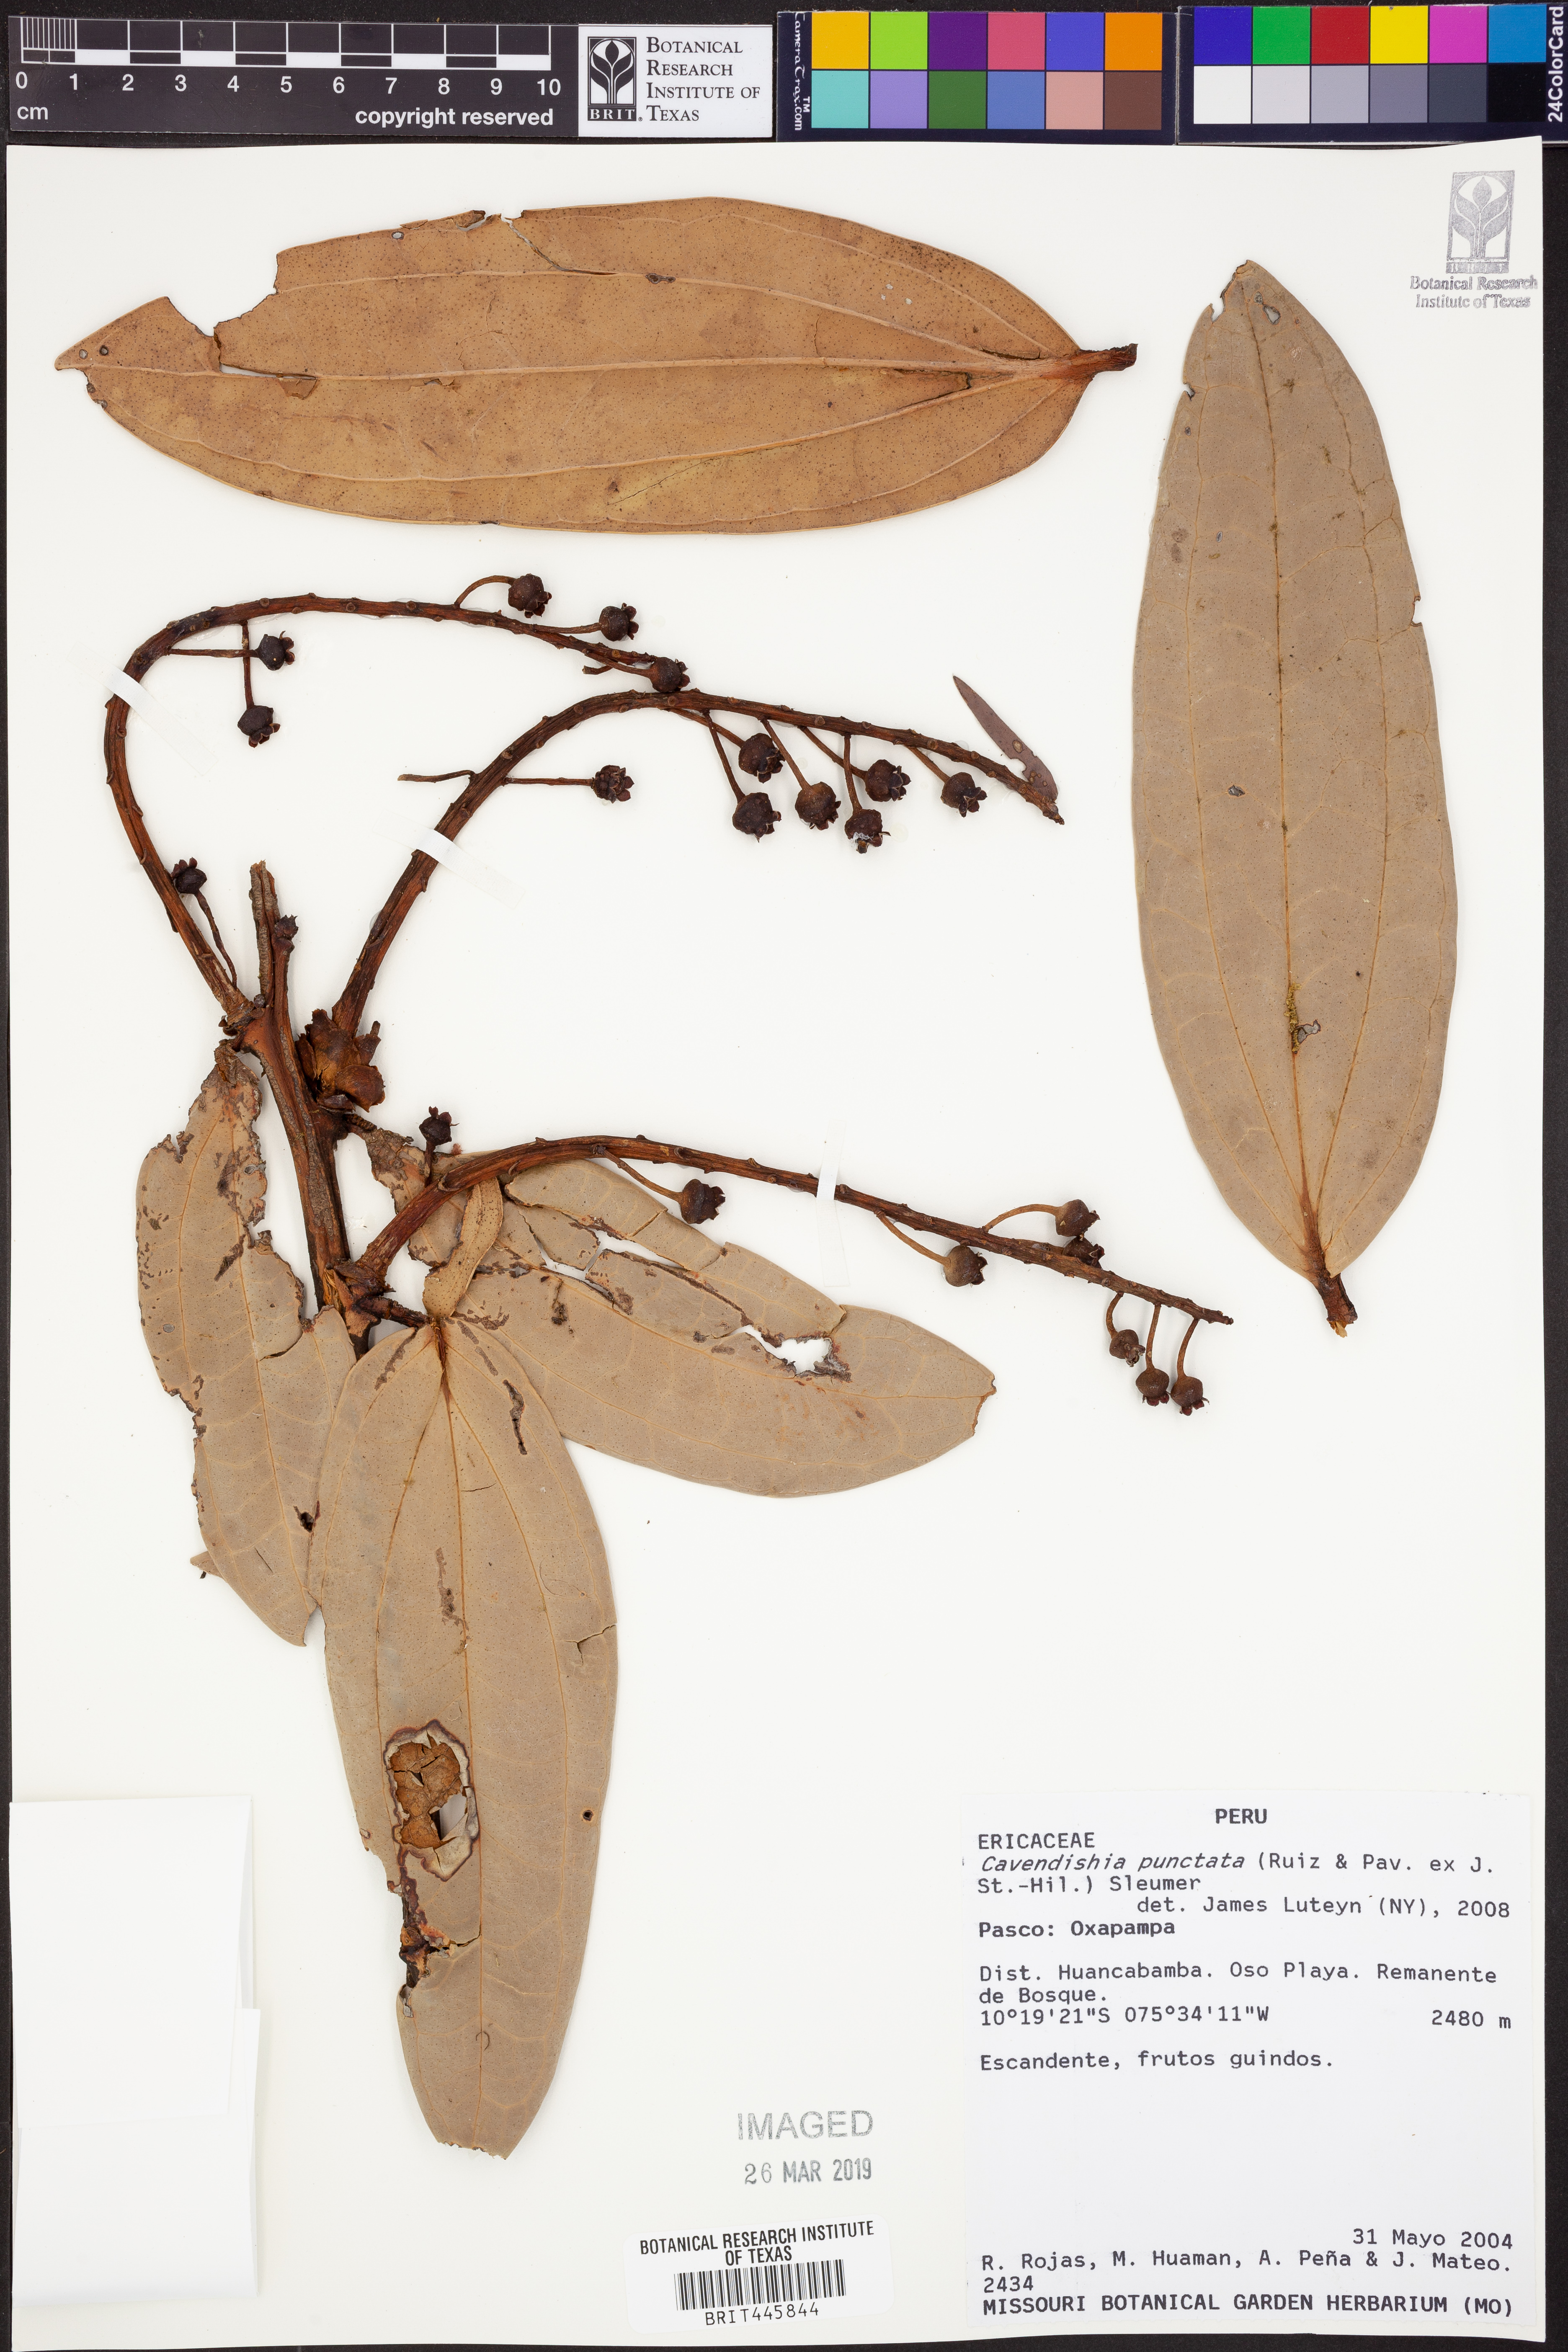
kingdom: Plantae
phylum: Tracheophyta
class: Magnoliopsida
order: Ericales
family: Ericaceae
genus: Cavendishia
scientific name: Cavendishia punctata
